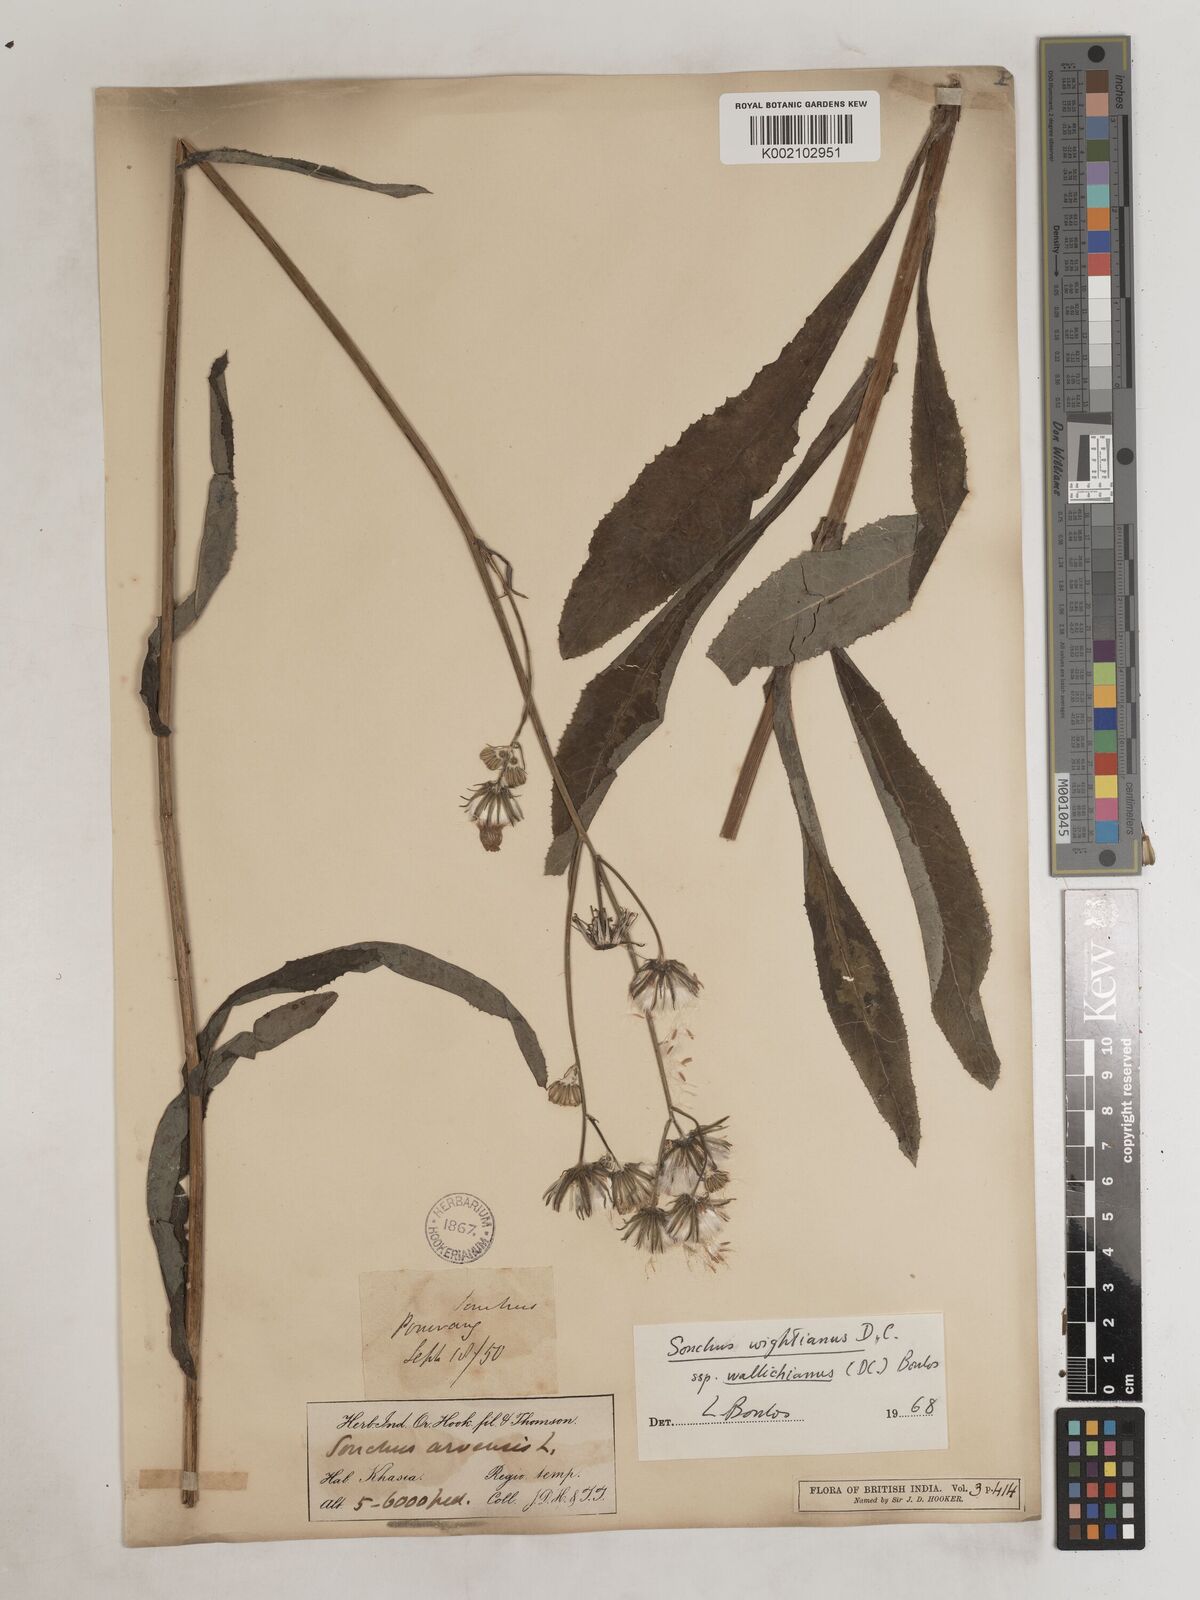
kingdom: Plantae
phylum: Tracheophyta
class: Magnoliopsida
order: Asterales
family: Asteraceae
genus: Sonchus
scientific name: Sonchus arvensis
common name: Perennial sow-thistle
